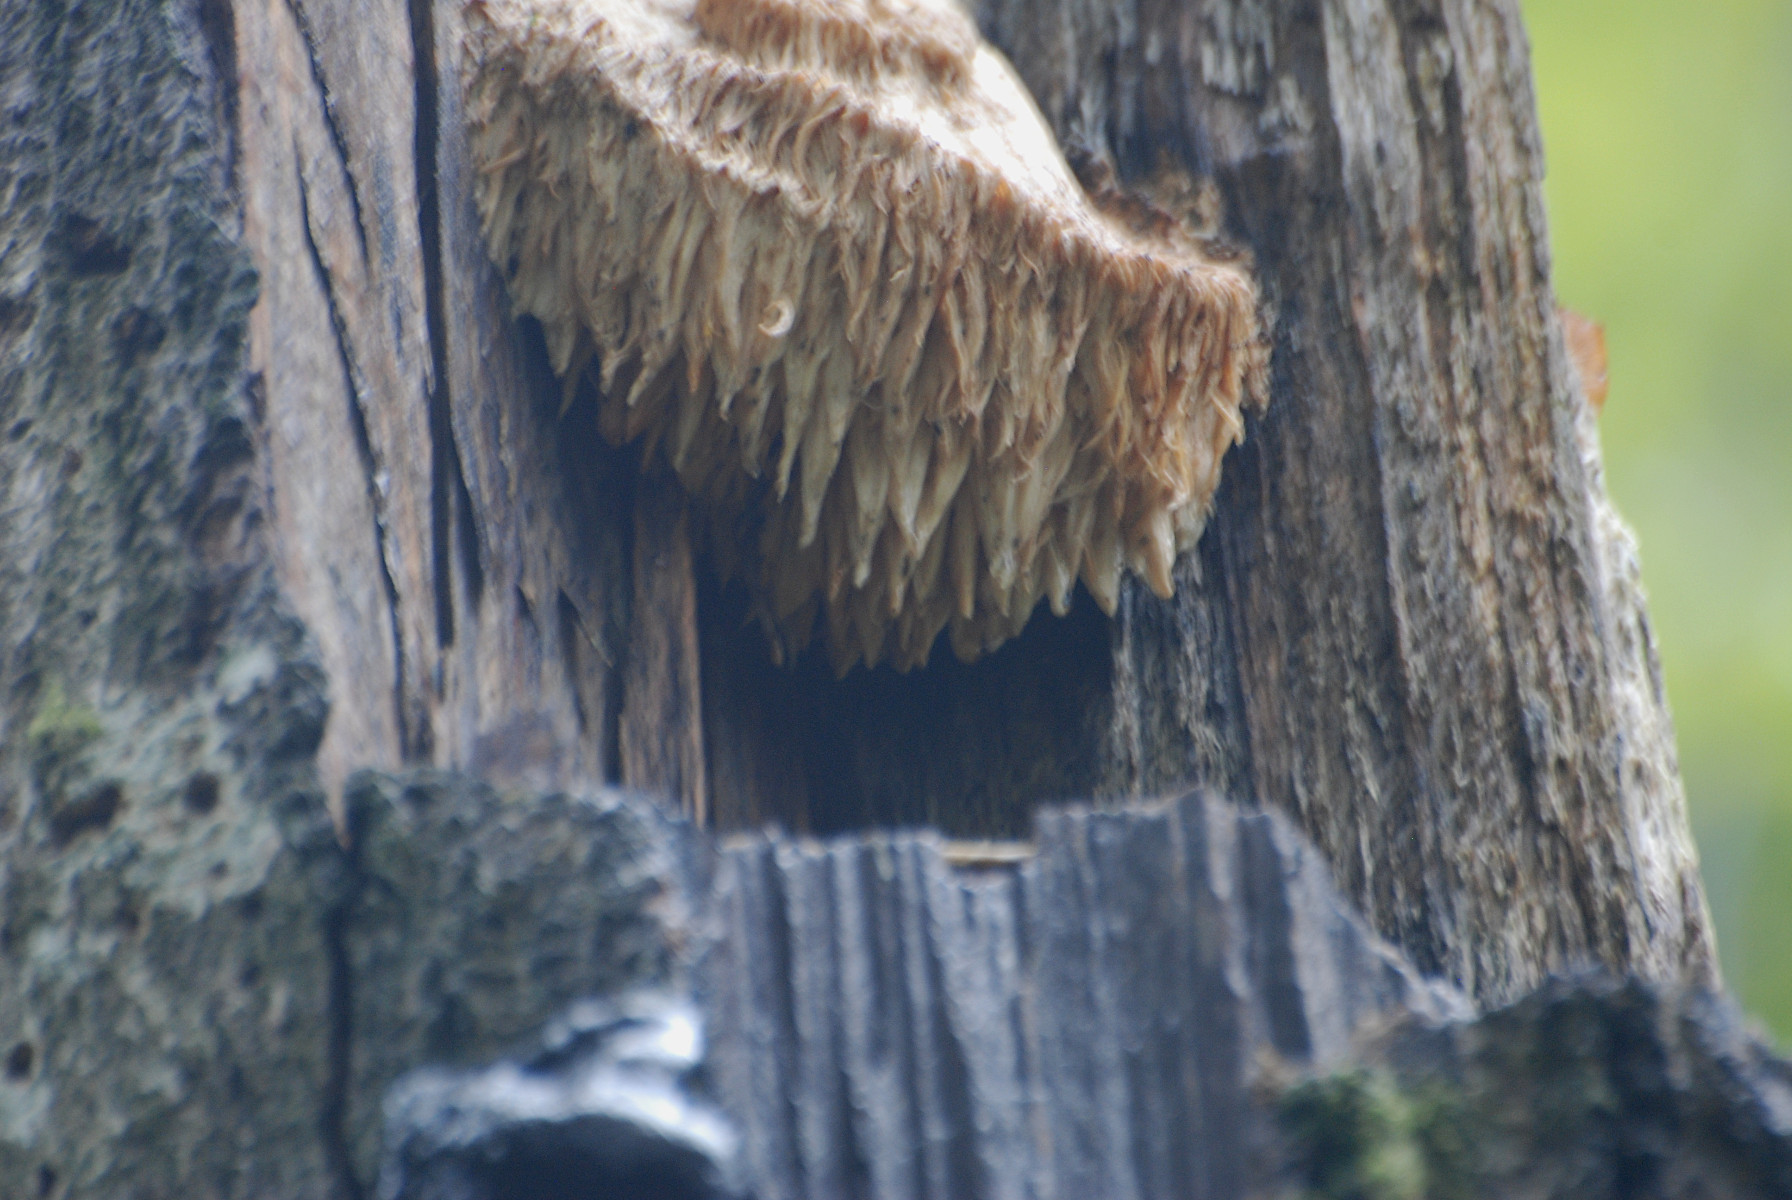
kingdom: Fungi
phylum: Basidiomycota
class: Agaricomycetes
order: Russulales
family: Hericiaceae
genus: Hericium
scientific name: Hericium erinaceus
